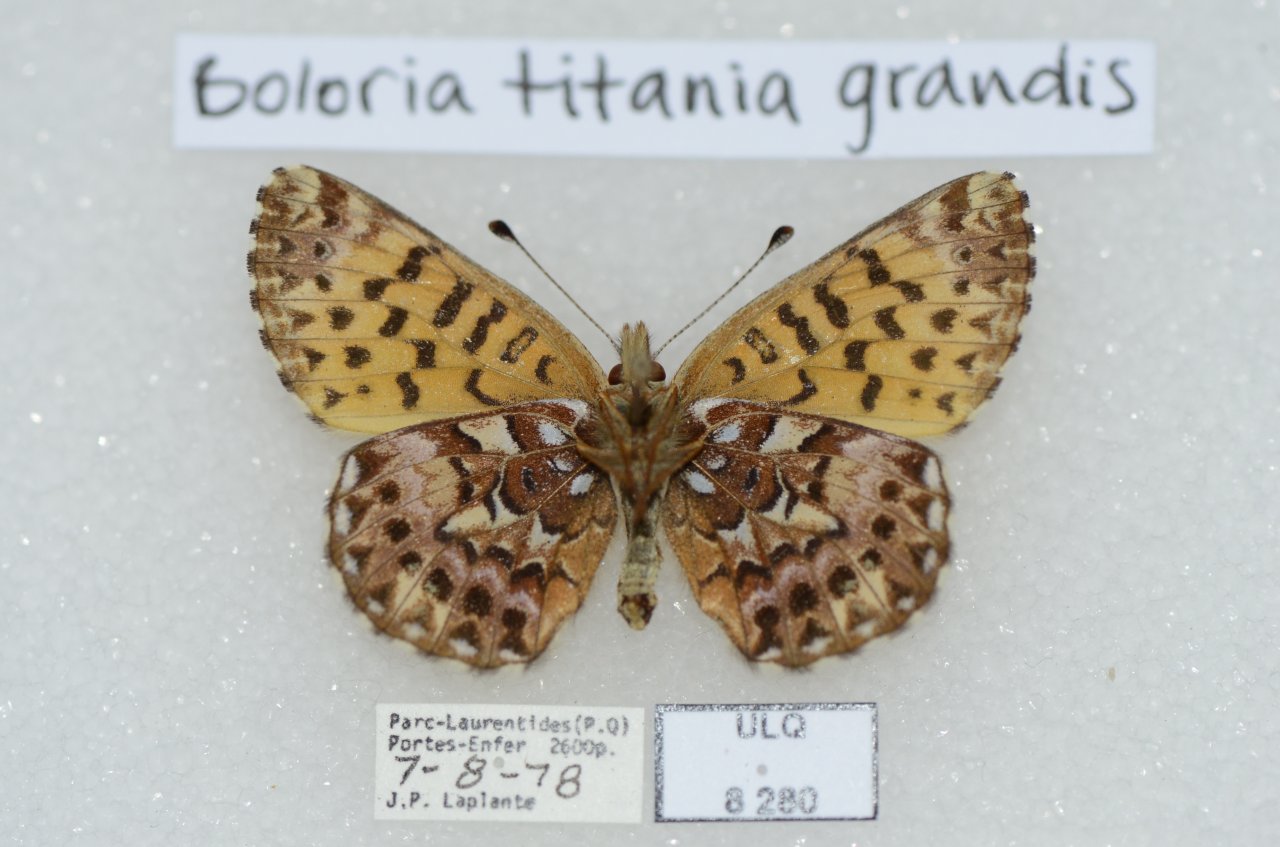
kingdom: Animalia
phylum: Arthropoda
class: Insecta
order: Lepidoptera
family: Nymphalidae
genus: Boloria
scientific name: Boloria chariclea
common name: Arctic Fritillary
